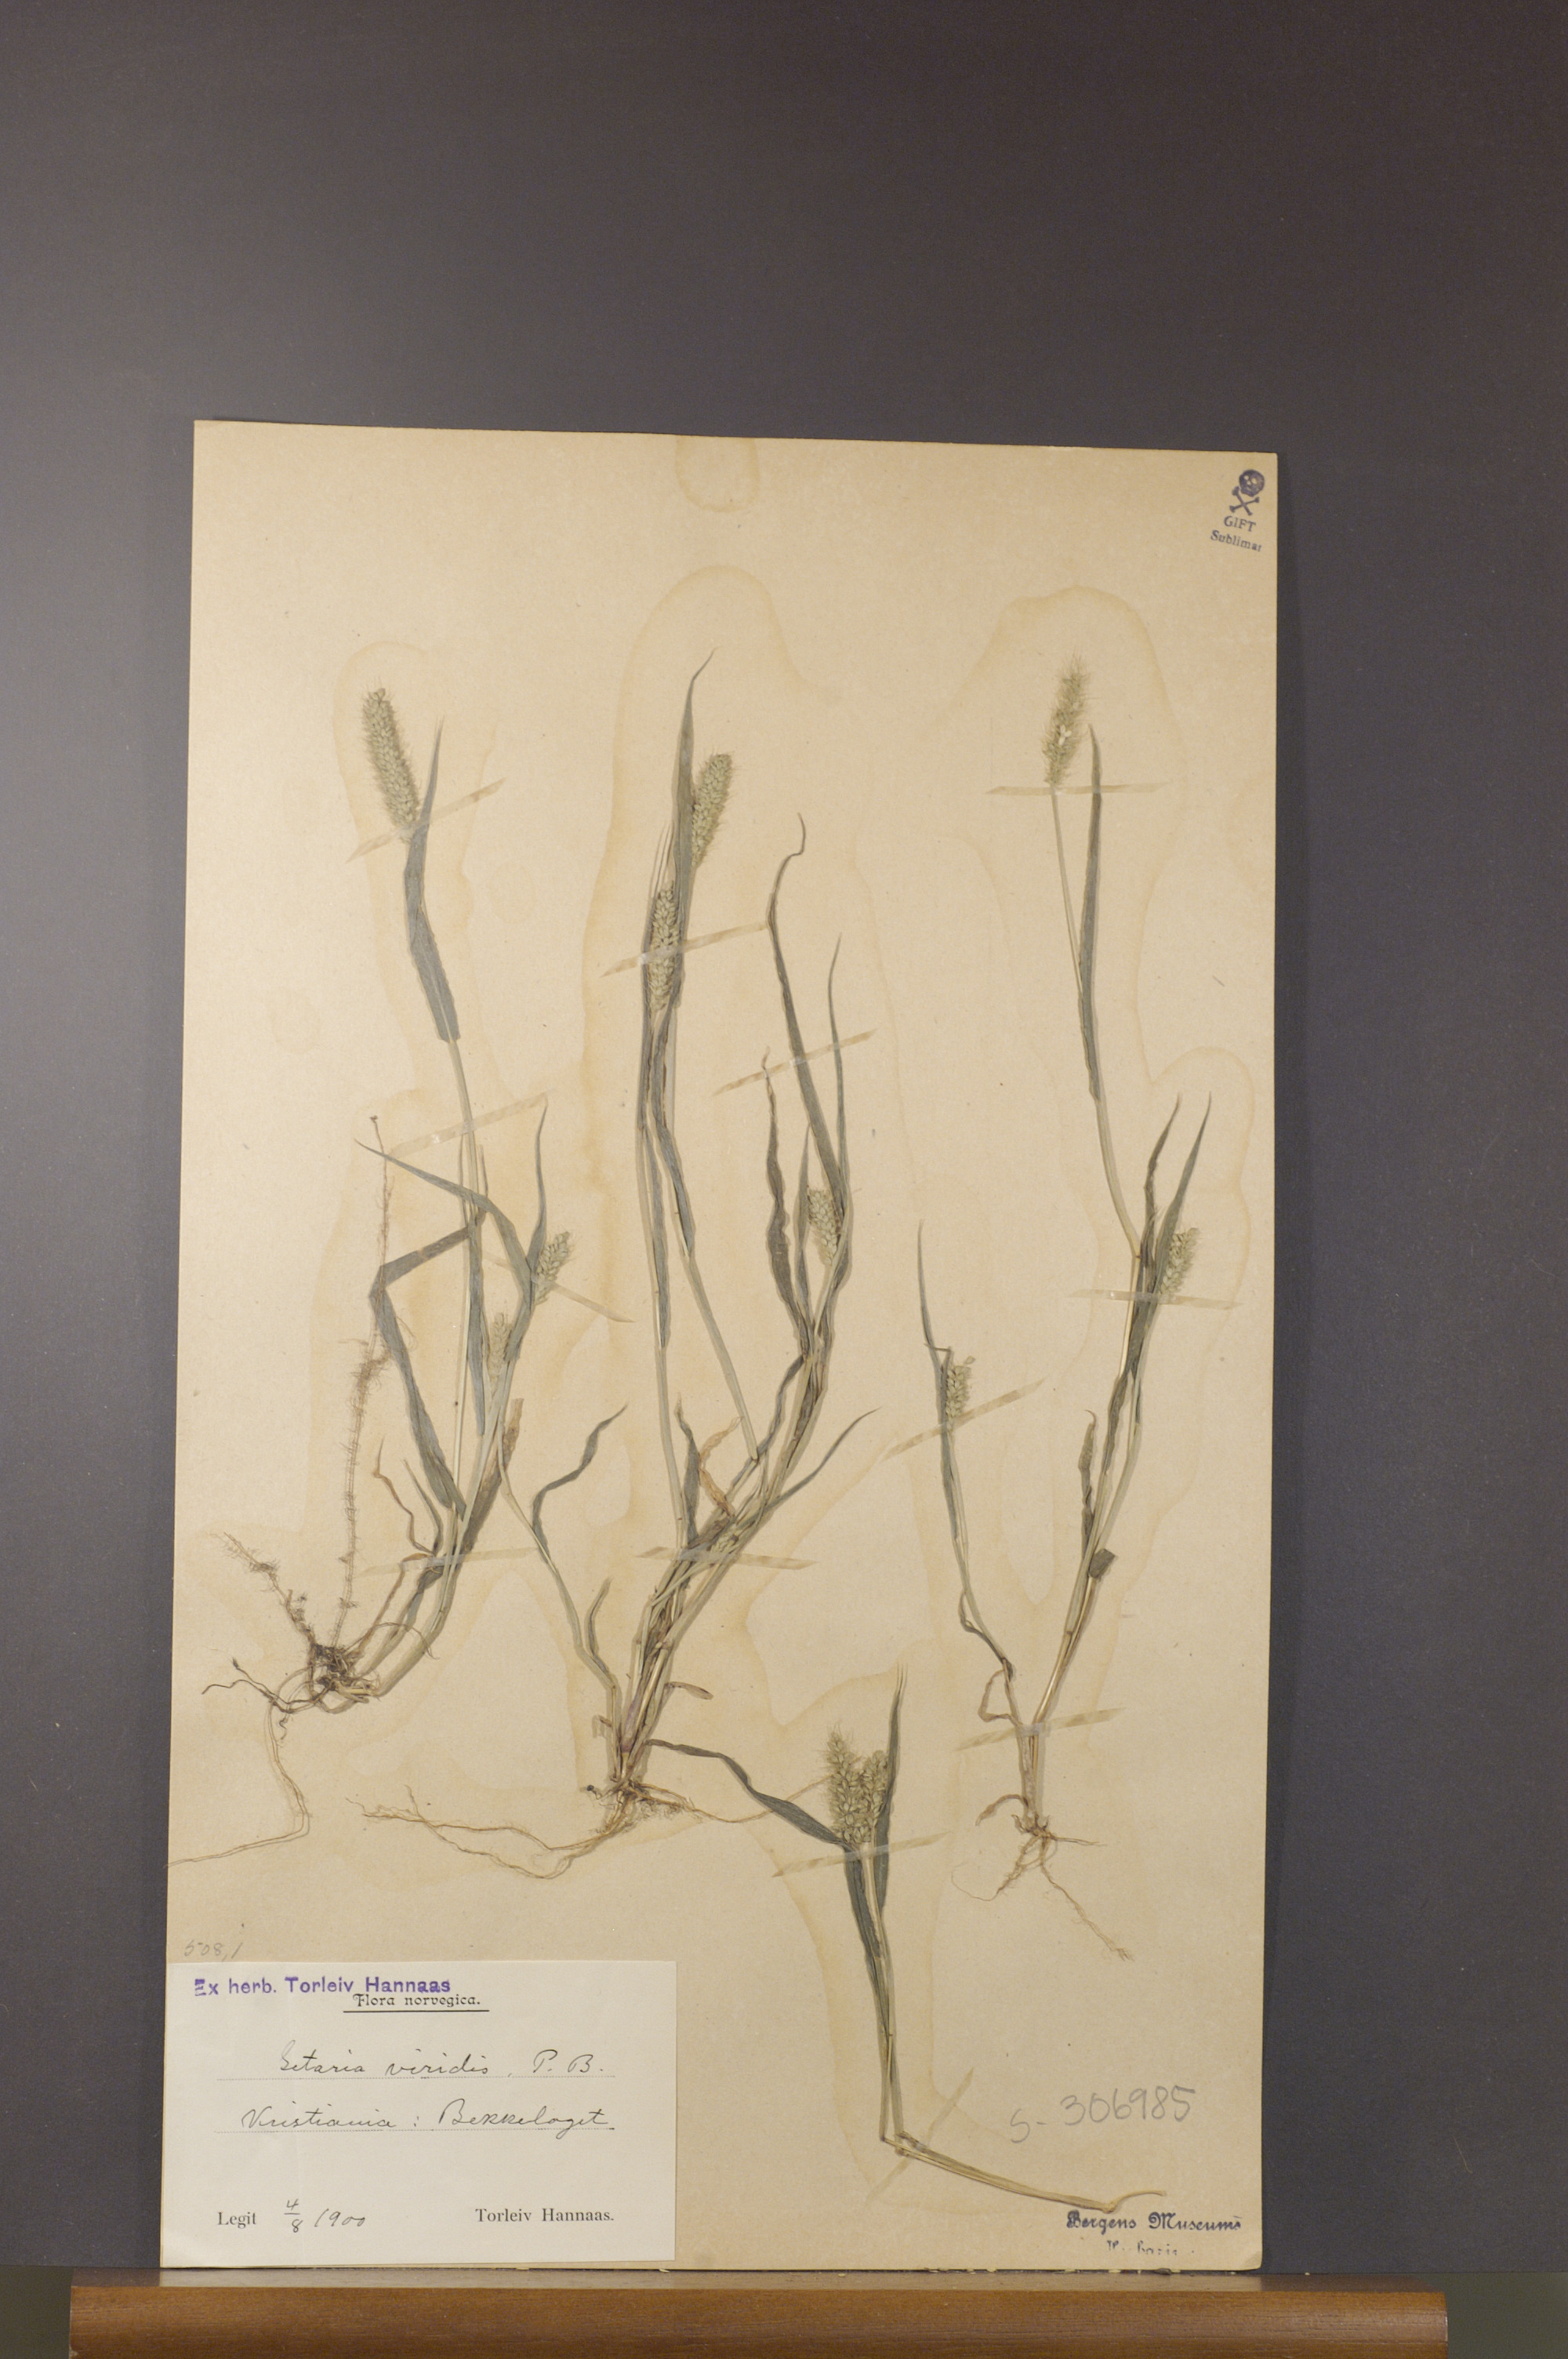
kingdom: Plantae
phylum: Tracheophyta
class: Liliopsida
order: Poales
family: Poaceae
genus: Setaria
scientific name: Setaria viridis
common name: Green bristlegrass
